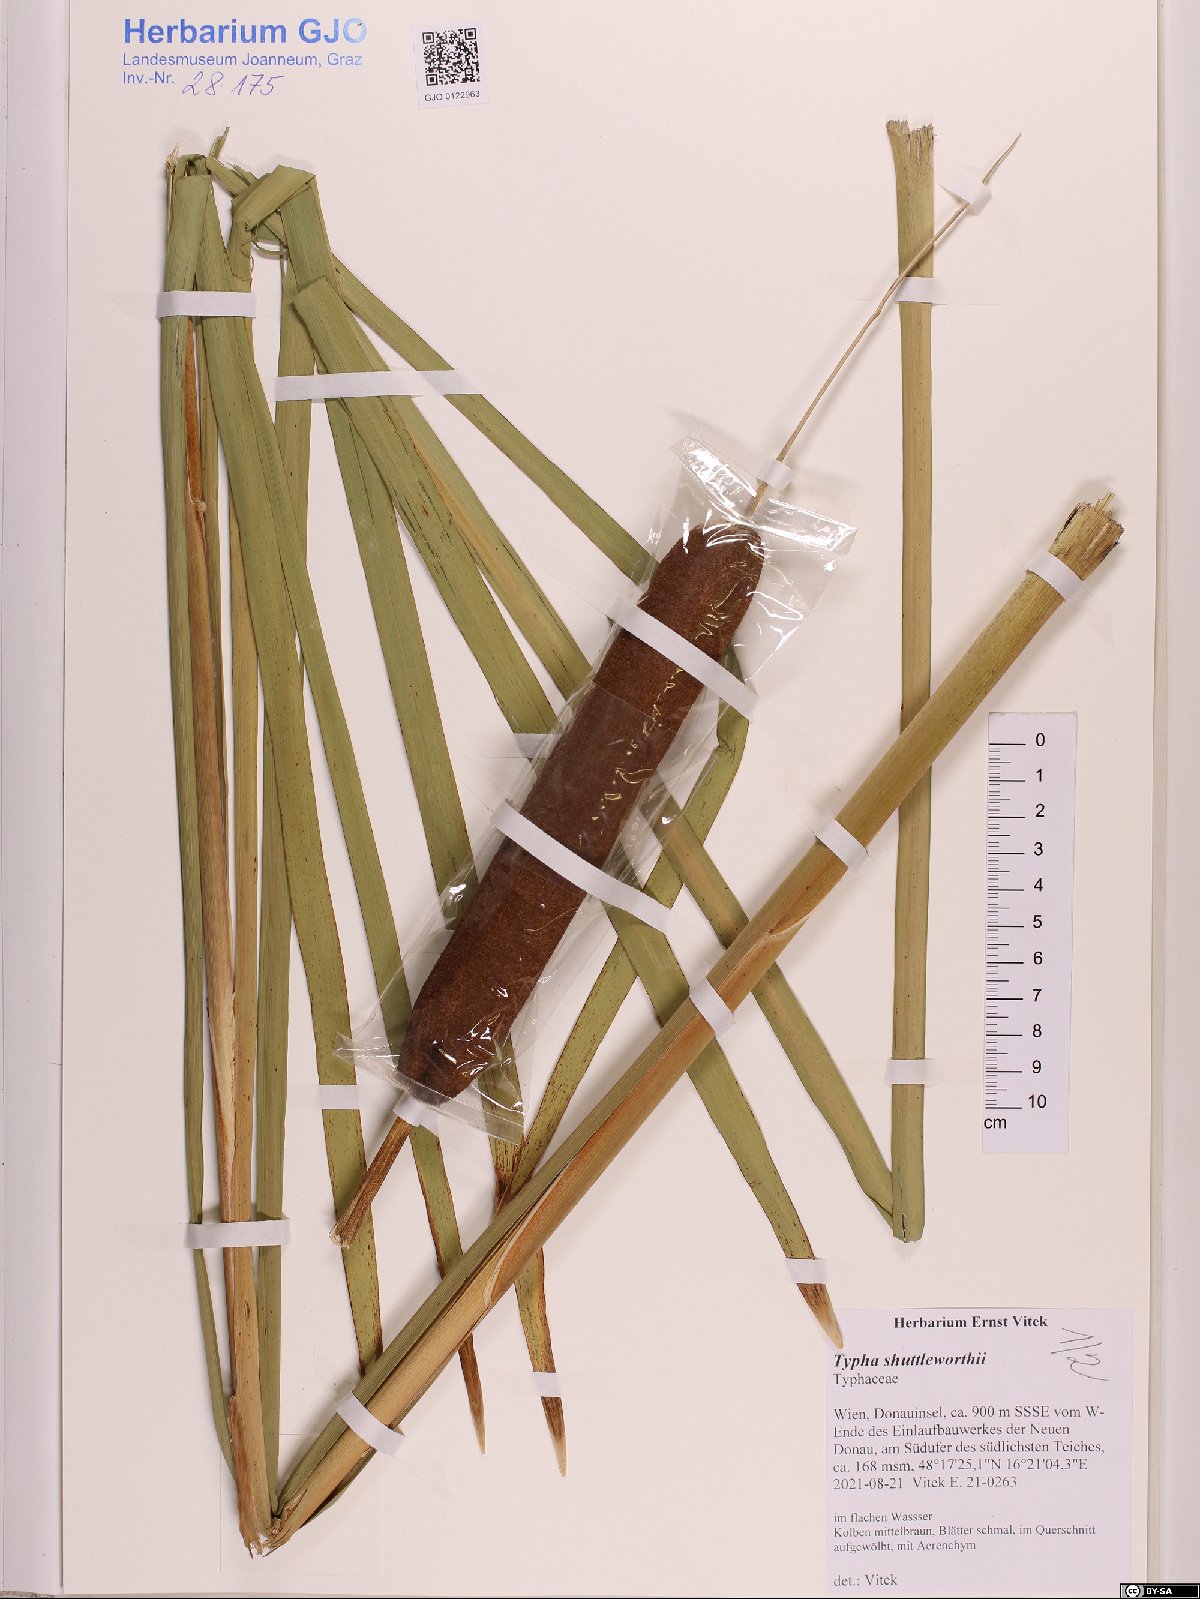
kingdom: Plantae
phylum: Tracheophyta
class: Liliopsida
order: Poales
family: Typhaceae
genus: Typha
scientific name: Typha shuttleworthii
